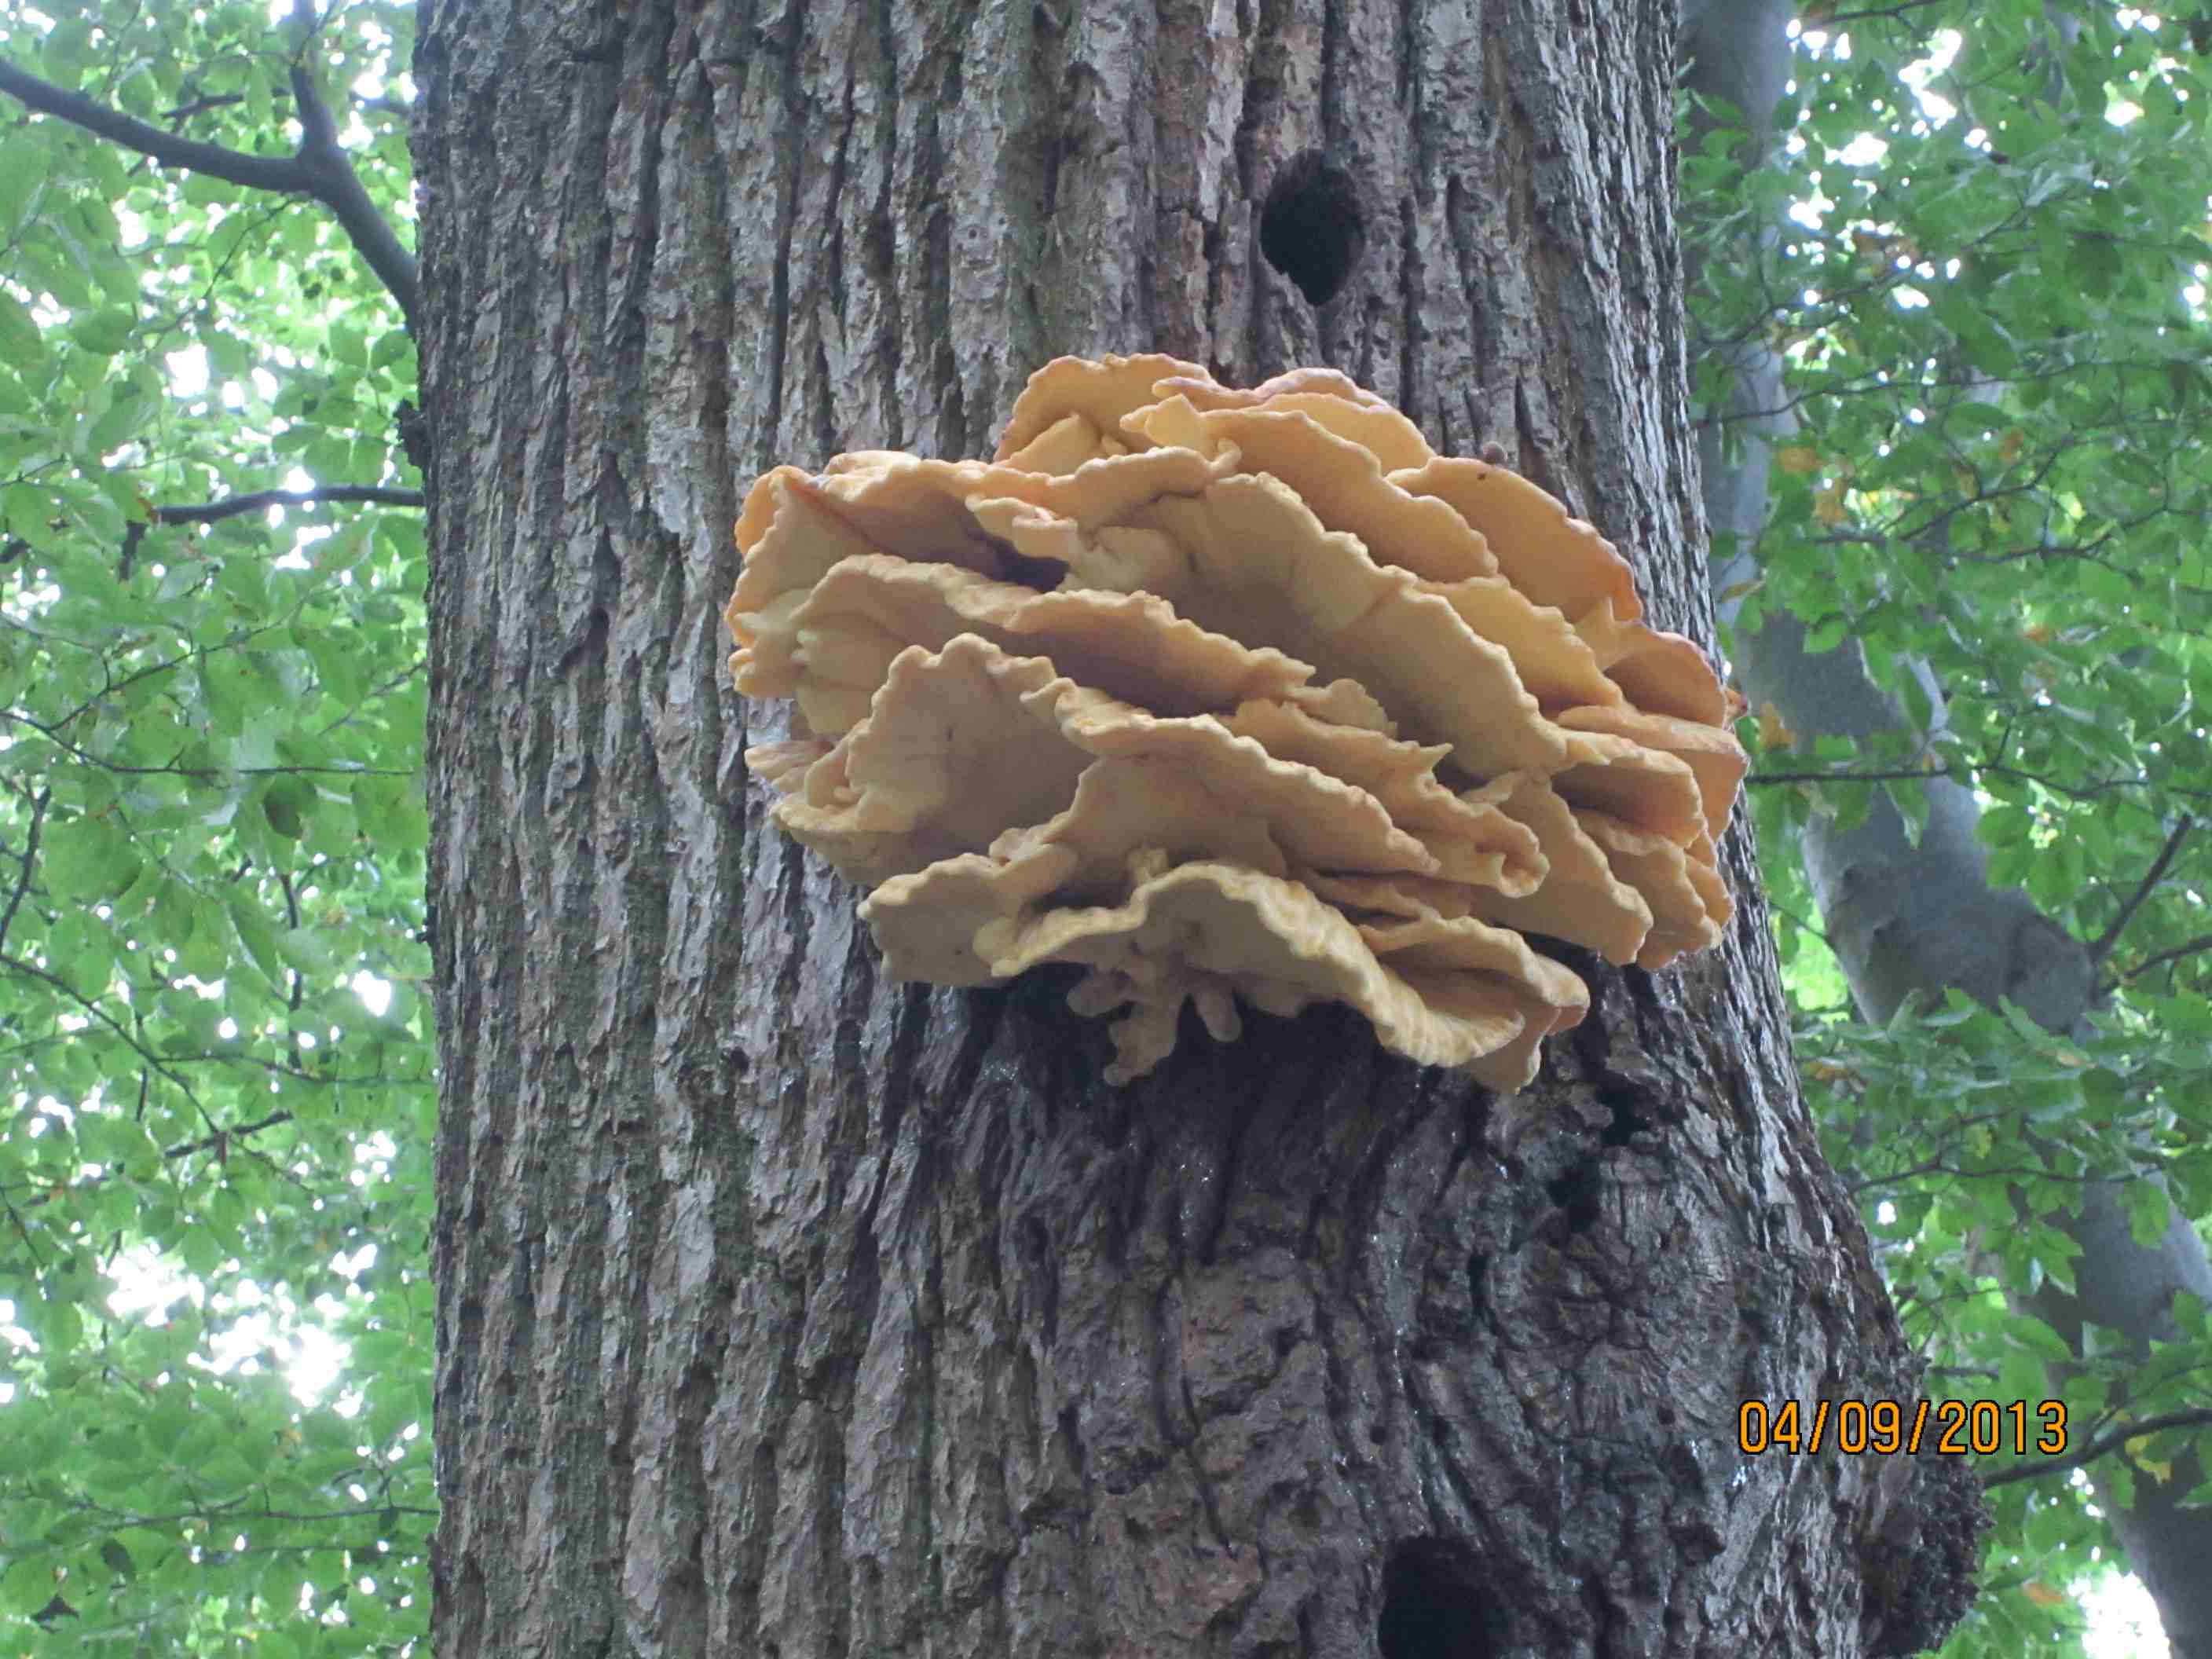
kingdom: Fungi
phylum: Basidiomycota
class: Agaricomycetes
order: Polyporales
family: Laetiporaceae
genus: Laetiporus
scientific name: Laetiporus sulphureus
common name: svovlporesvamp
